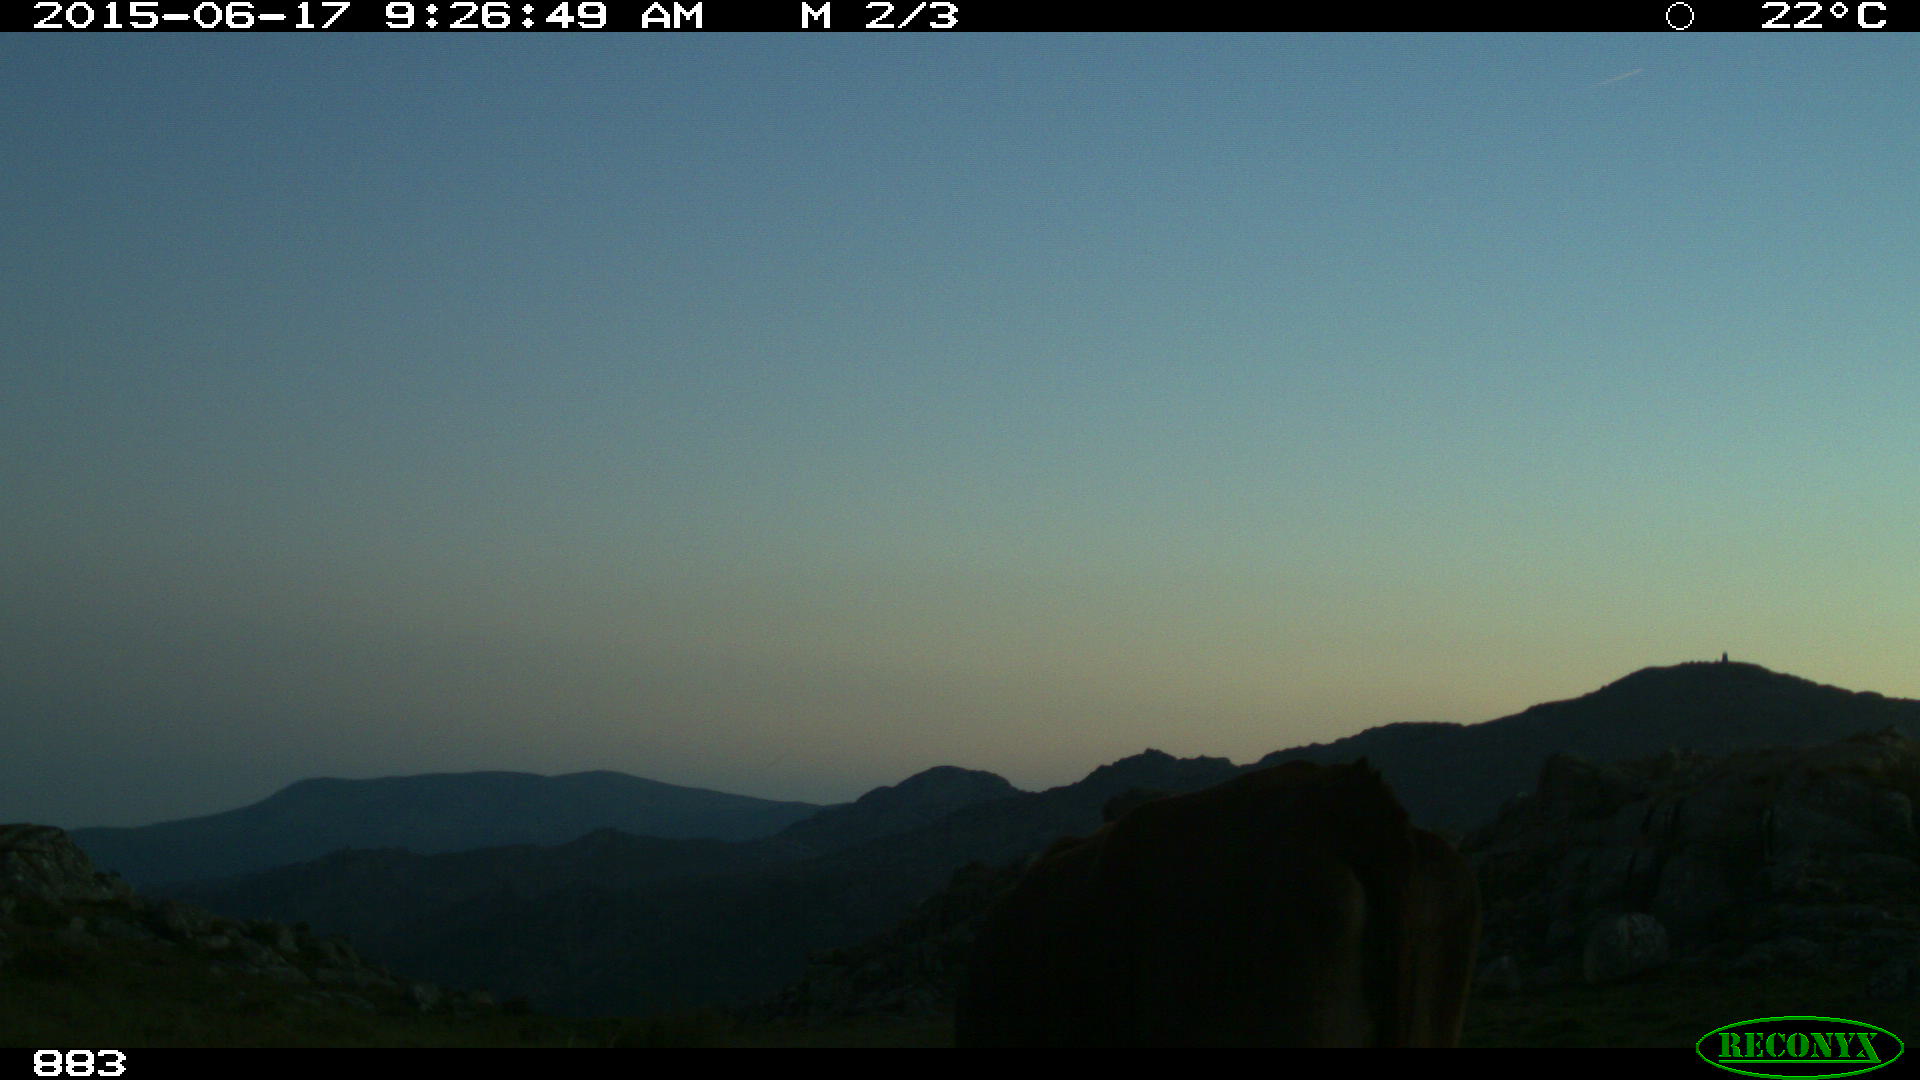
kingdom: Animalia
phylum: Chordata
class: Mammalia
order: Artiodactyla
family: Bovidae
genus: Bos
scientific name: Bos taurus
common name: Domesticated cattle
